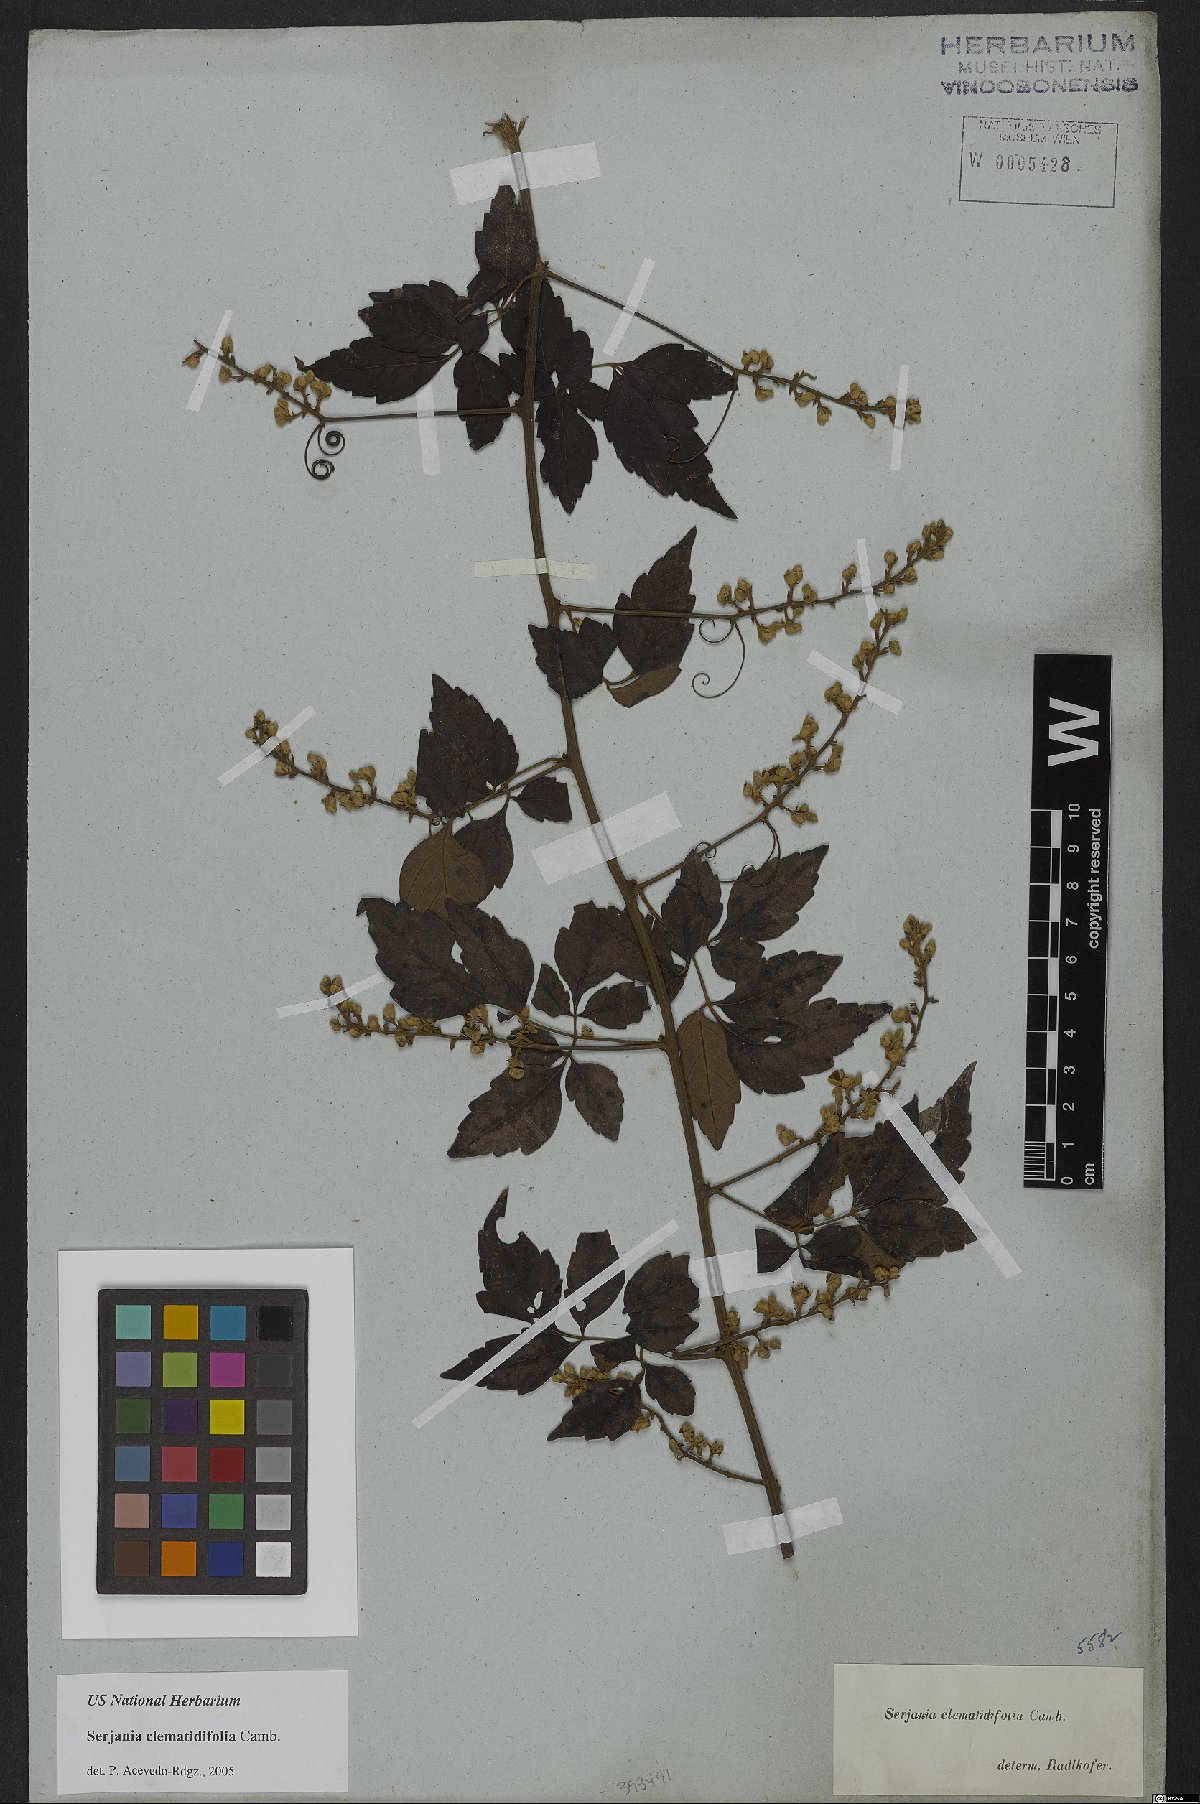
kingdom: Plantae
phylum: Tracheophyta
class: Magnoliopsida
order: Sapindales
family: Sapindaceae
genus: Serjania
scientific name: Serjania clematidifolia
